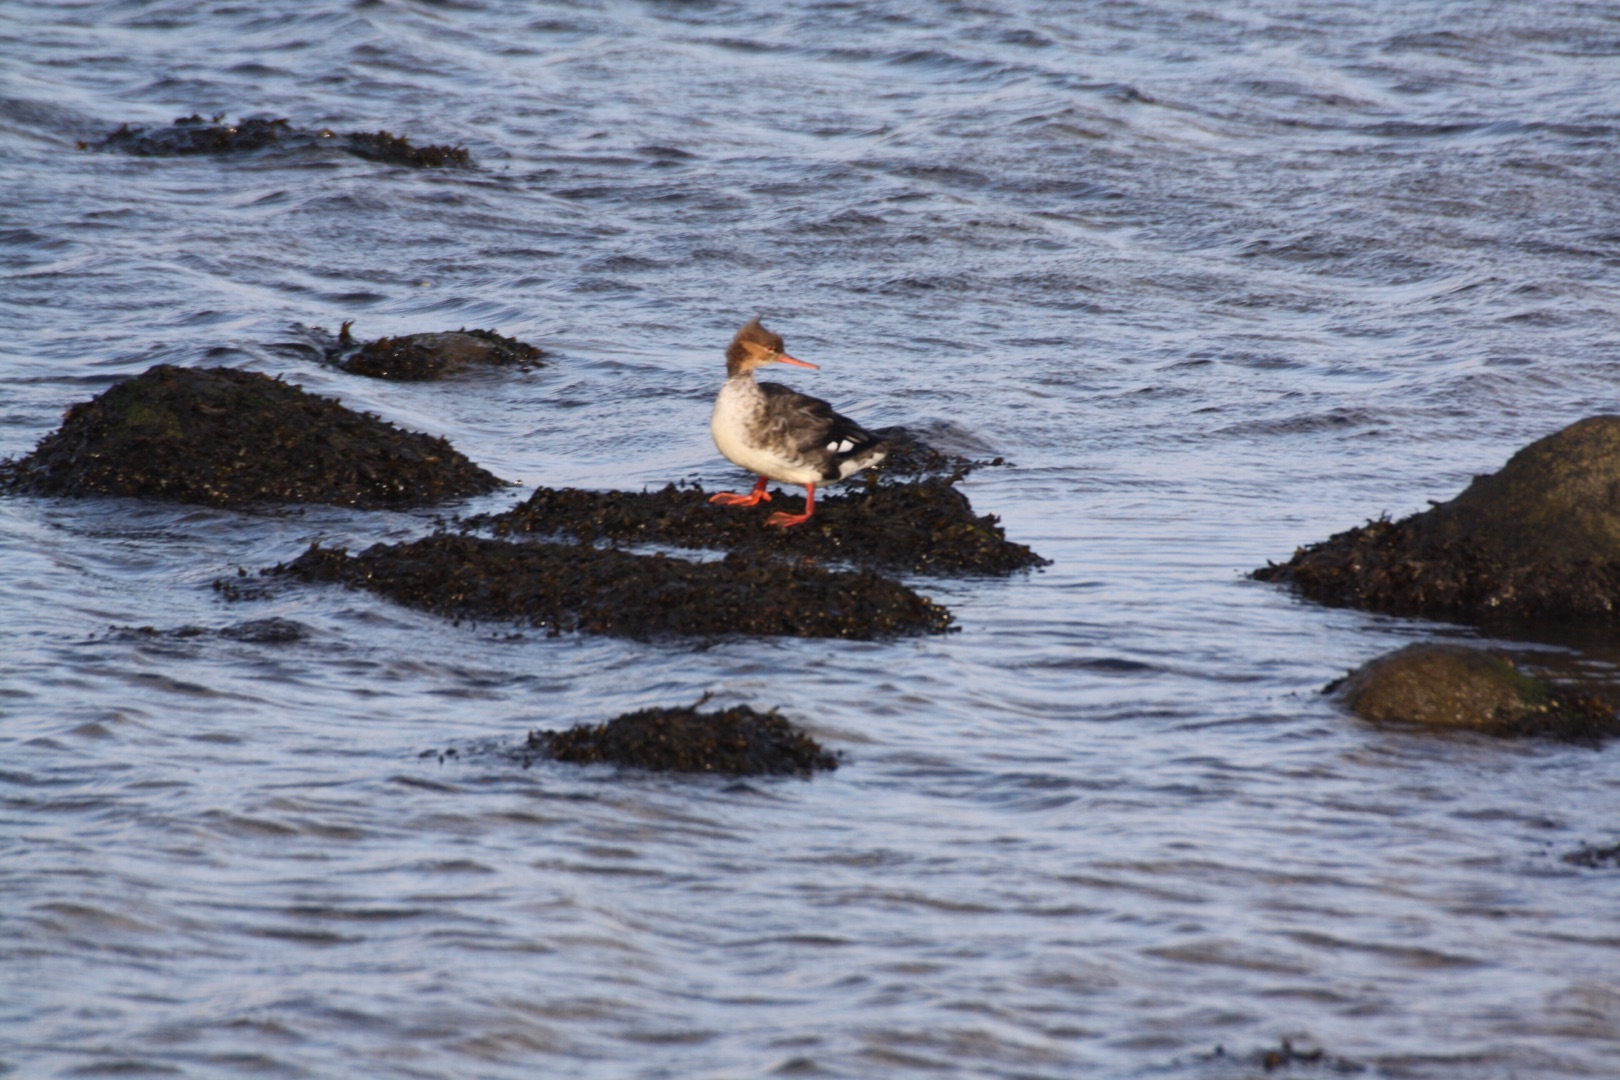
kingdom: Animalia
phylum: Chordata
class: Aves
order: Anseriformes
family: Anatidae
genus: Mergus
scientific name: Mergus serrator
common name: Toppet skallesluger
